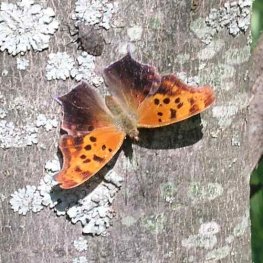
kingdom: Animalia
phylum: Arthropoda
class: Insecta
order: Lepidoptera
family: Nymphalidae
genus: Polygonia
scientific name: Polygonia interrogationis
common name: Question Mark
